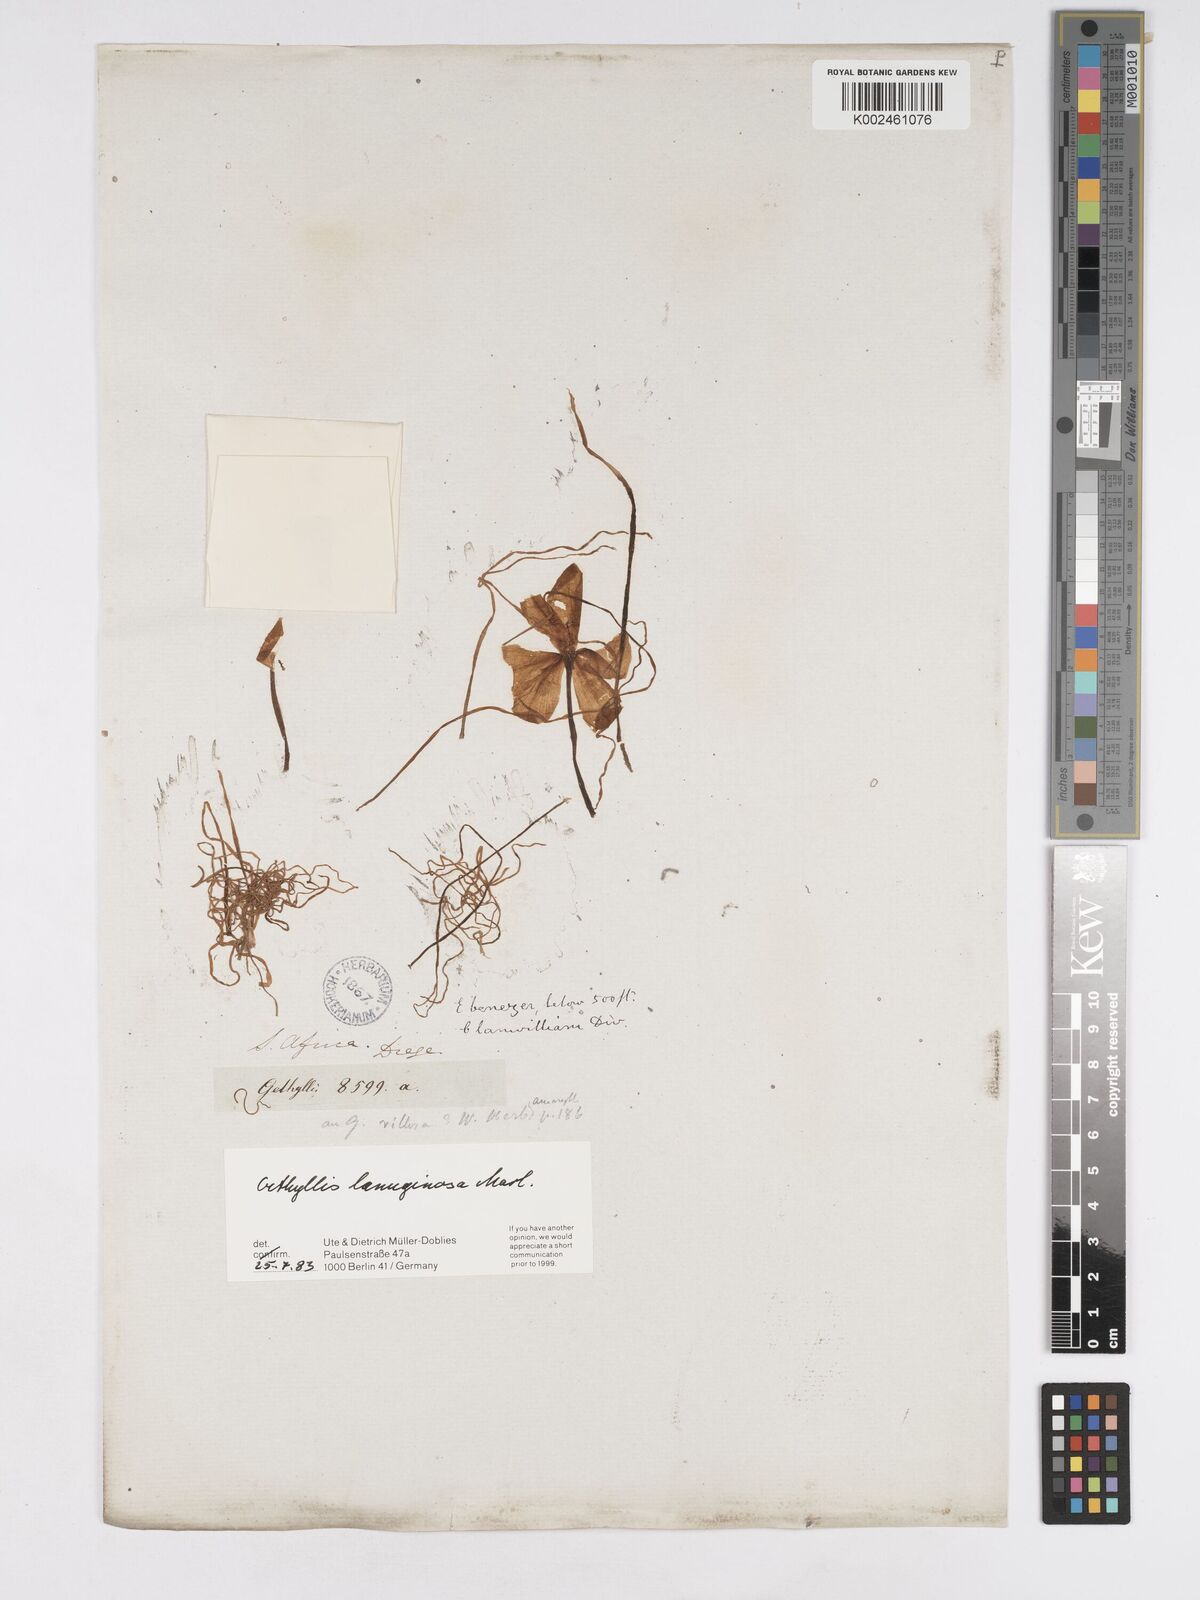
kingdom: Plantae
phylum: Tracheophyta
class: Liliopsida
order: Asparagales
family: Amaryllidaceae
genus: Gethyllis
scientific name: Gethyllis lanuginosa
